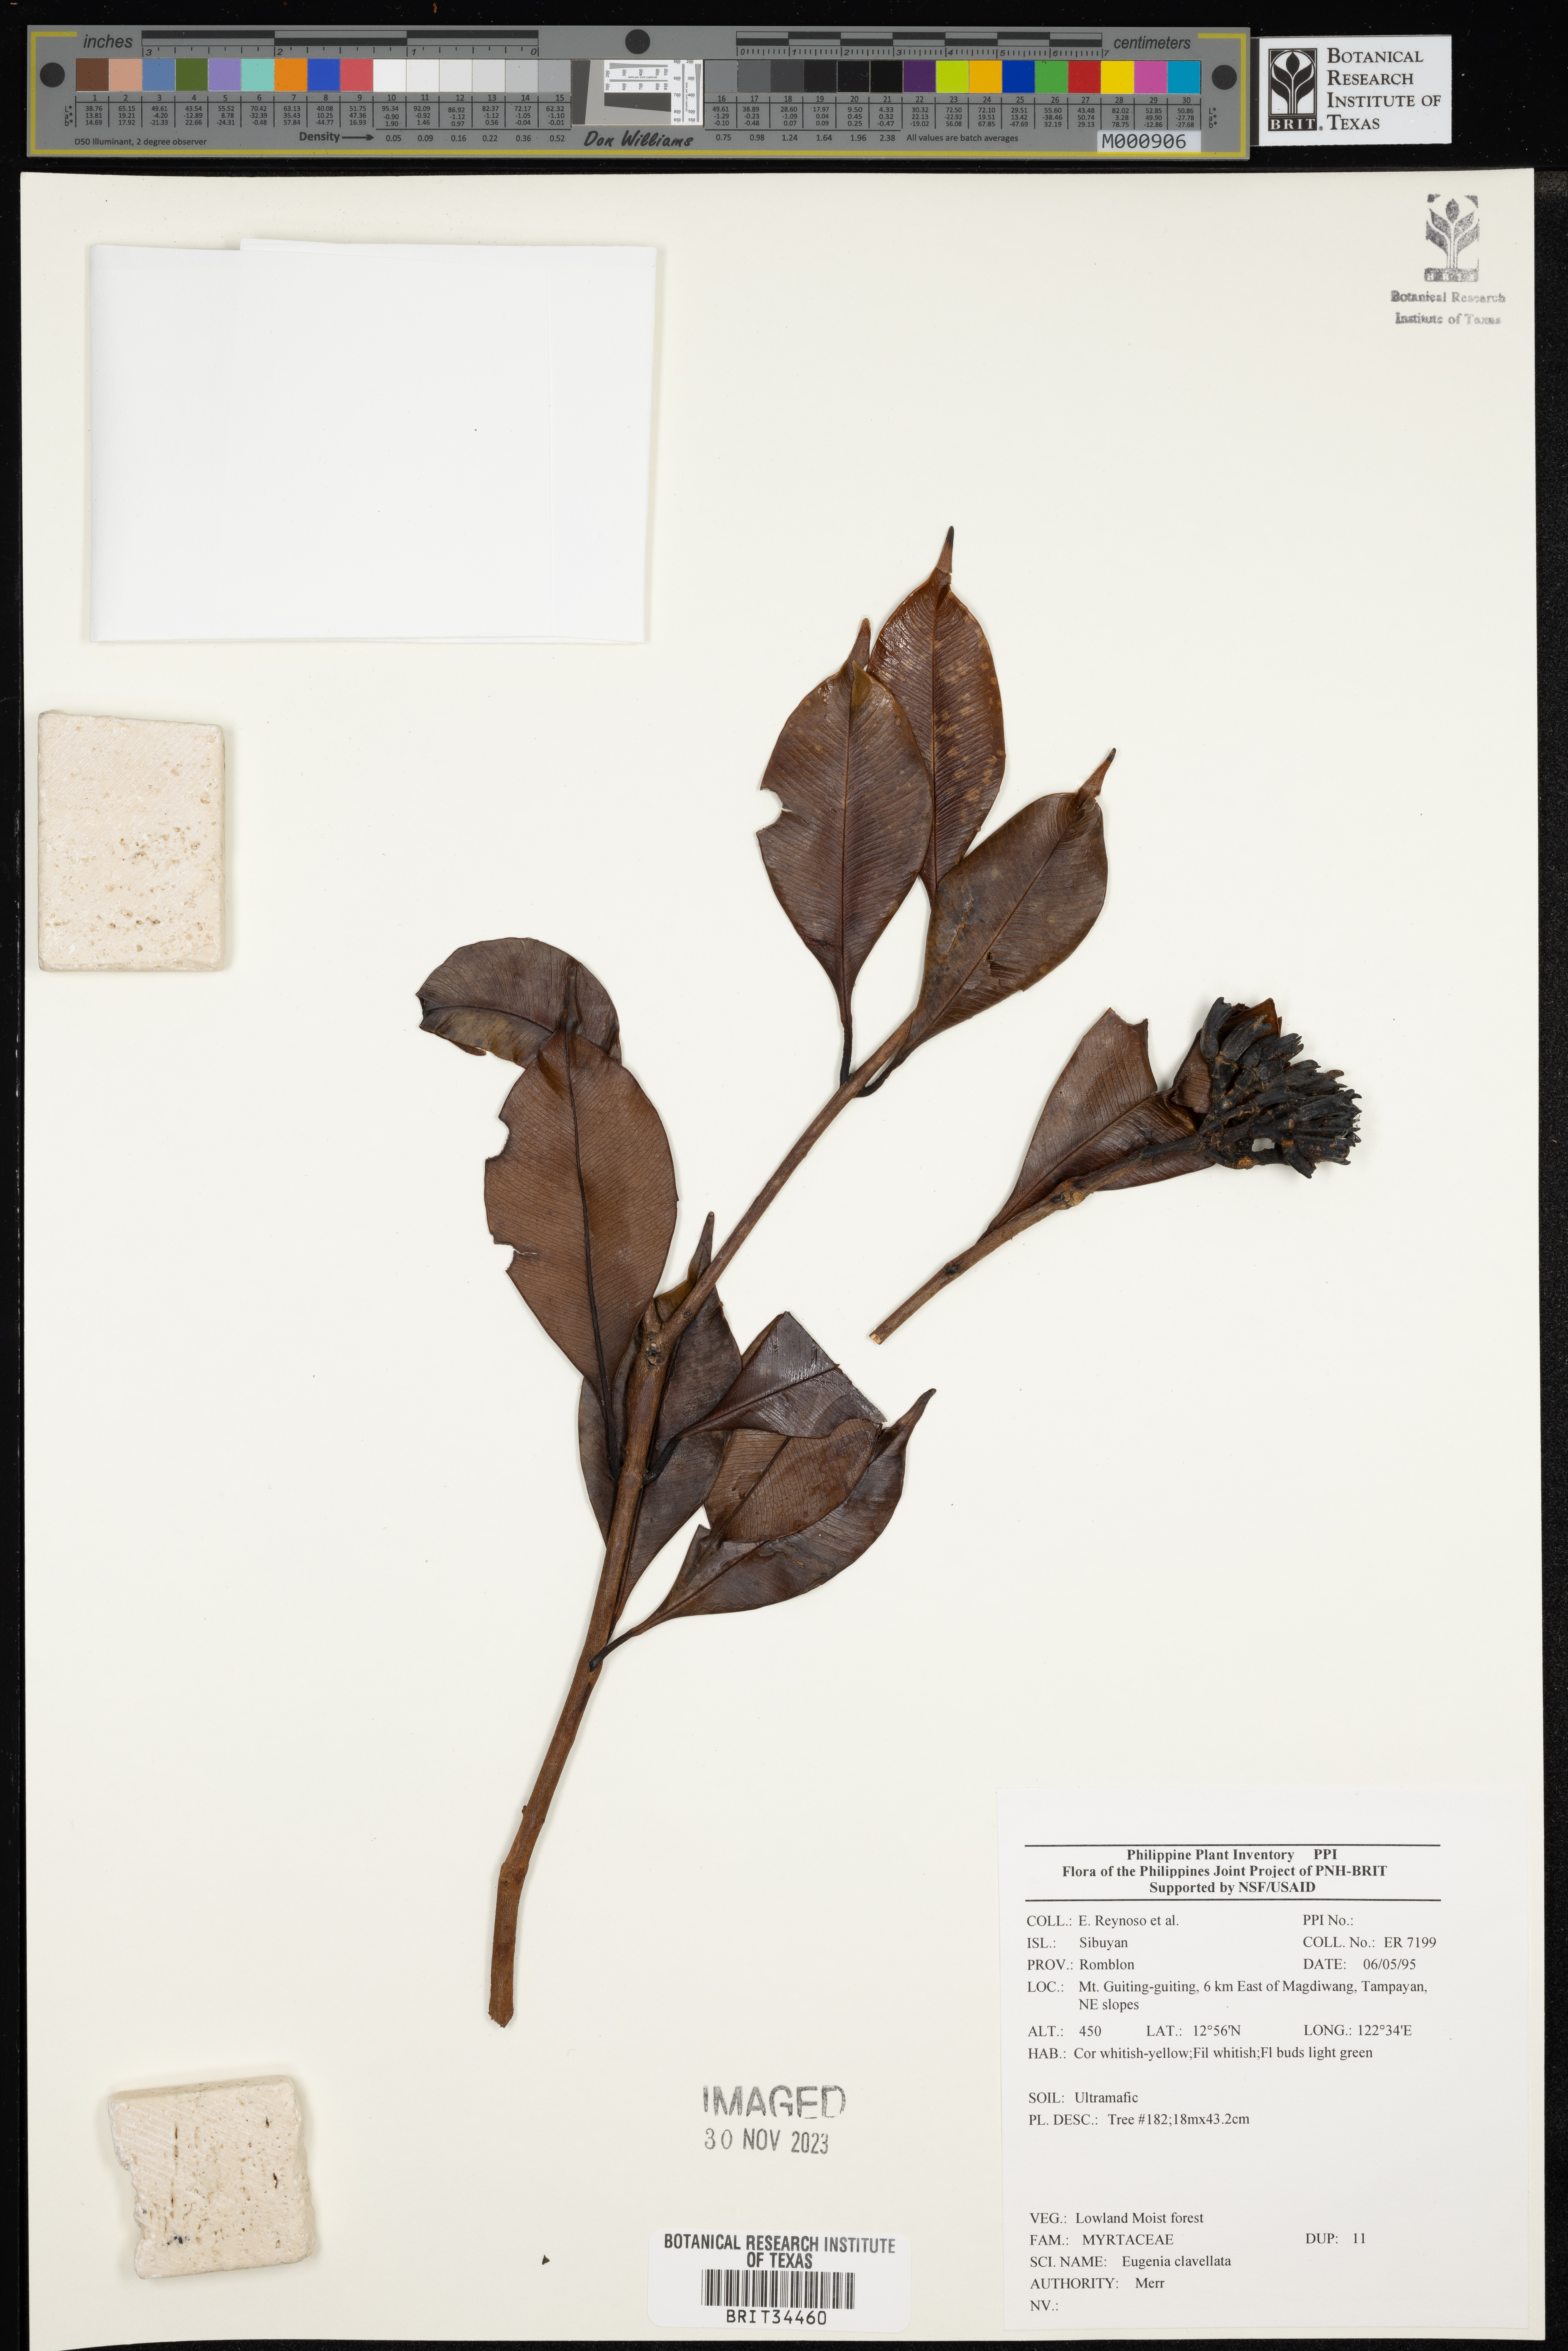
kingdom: Plantae
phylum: Tracheophyta
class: Magnoliopsida
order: Myrtales
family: Myrtaceae
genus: Eugenia
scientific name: Eugenia
